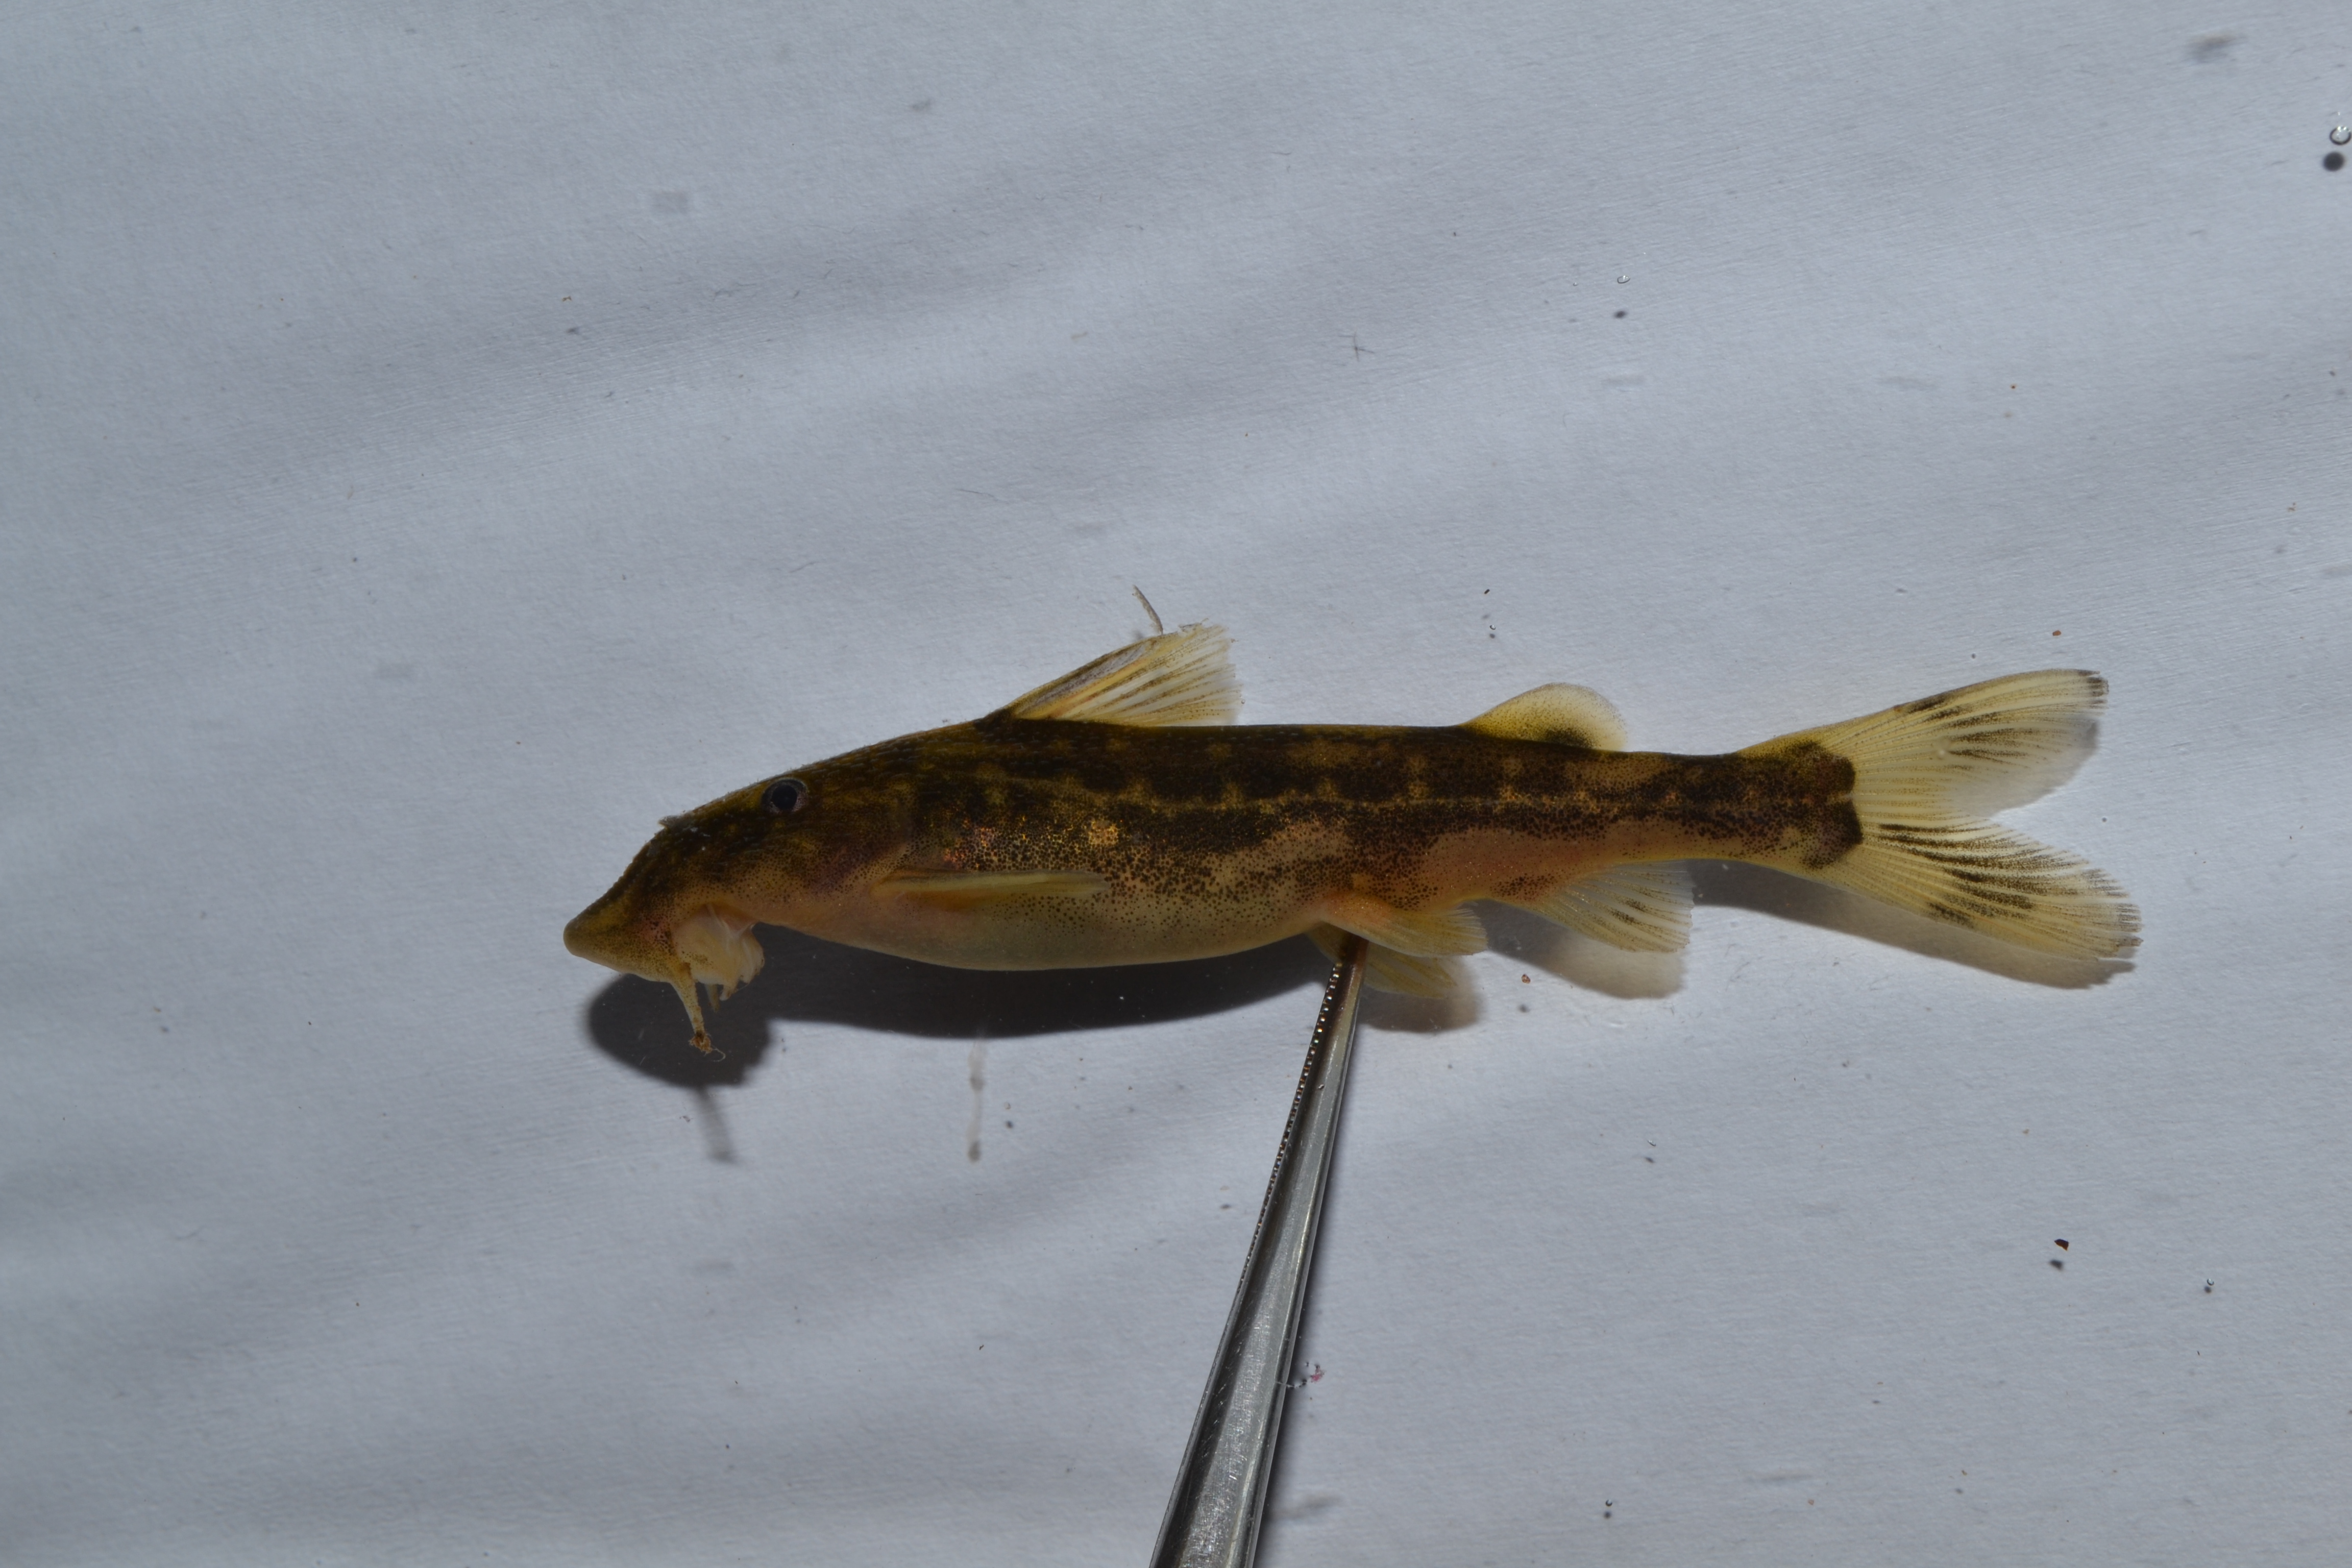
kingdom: Animalia
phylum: Chordata
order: Siluriformes
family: Mochokidae
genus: Chiloglanis
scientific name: Chiloglanis
